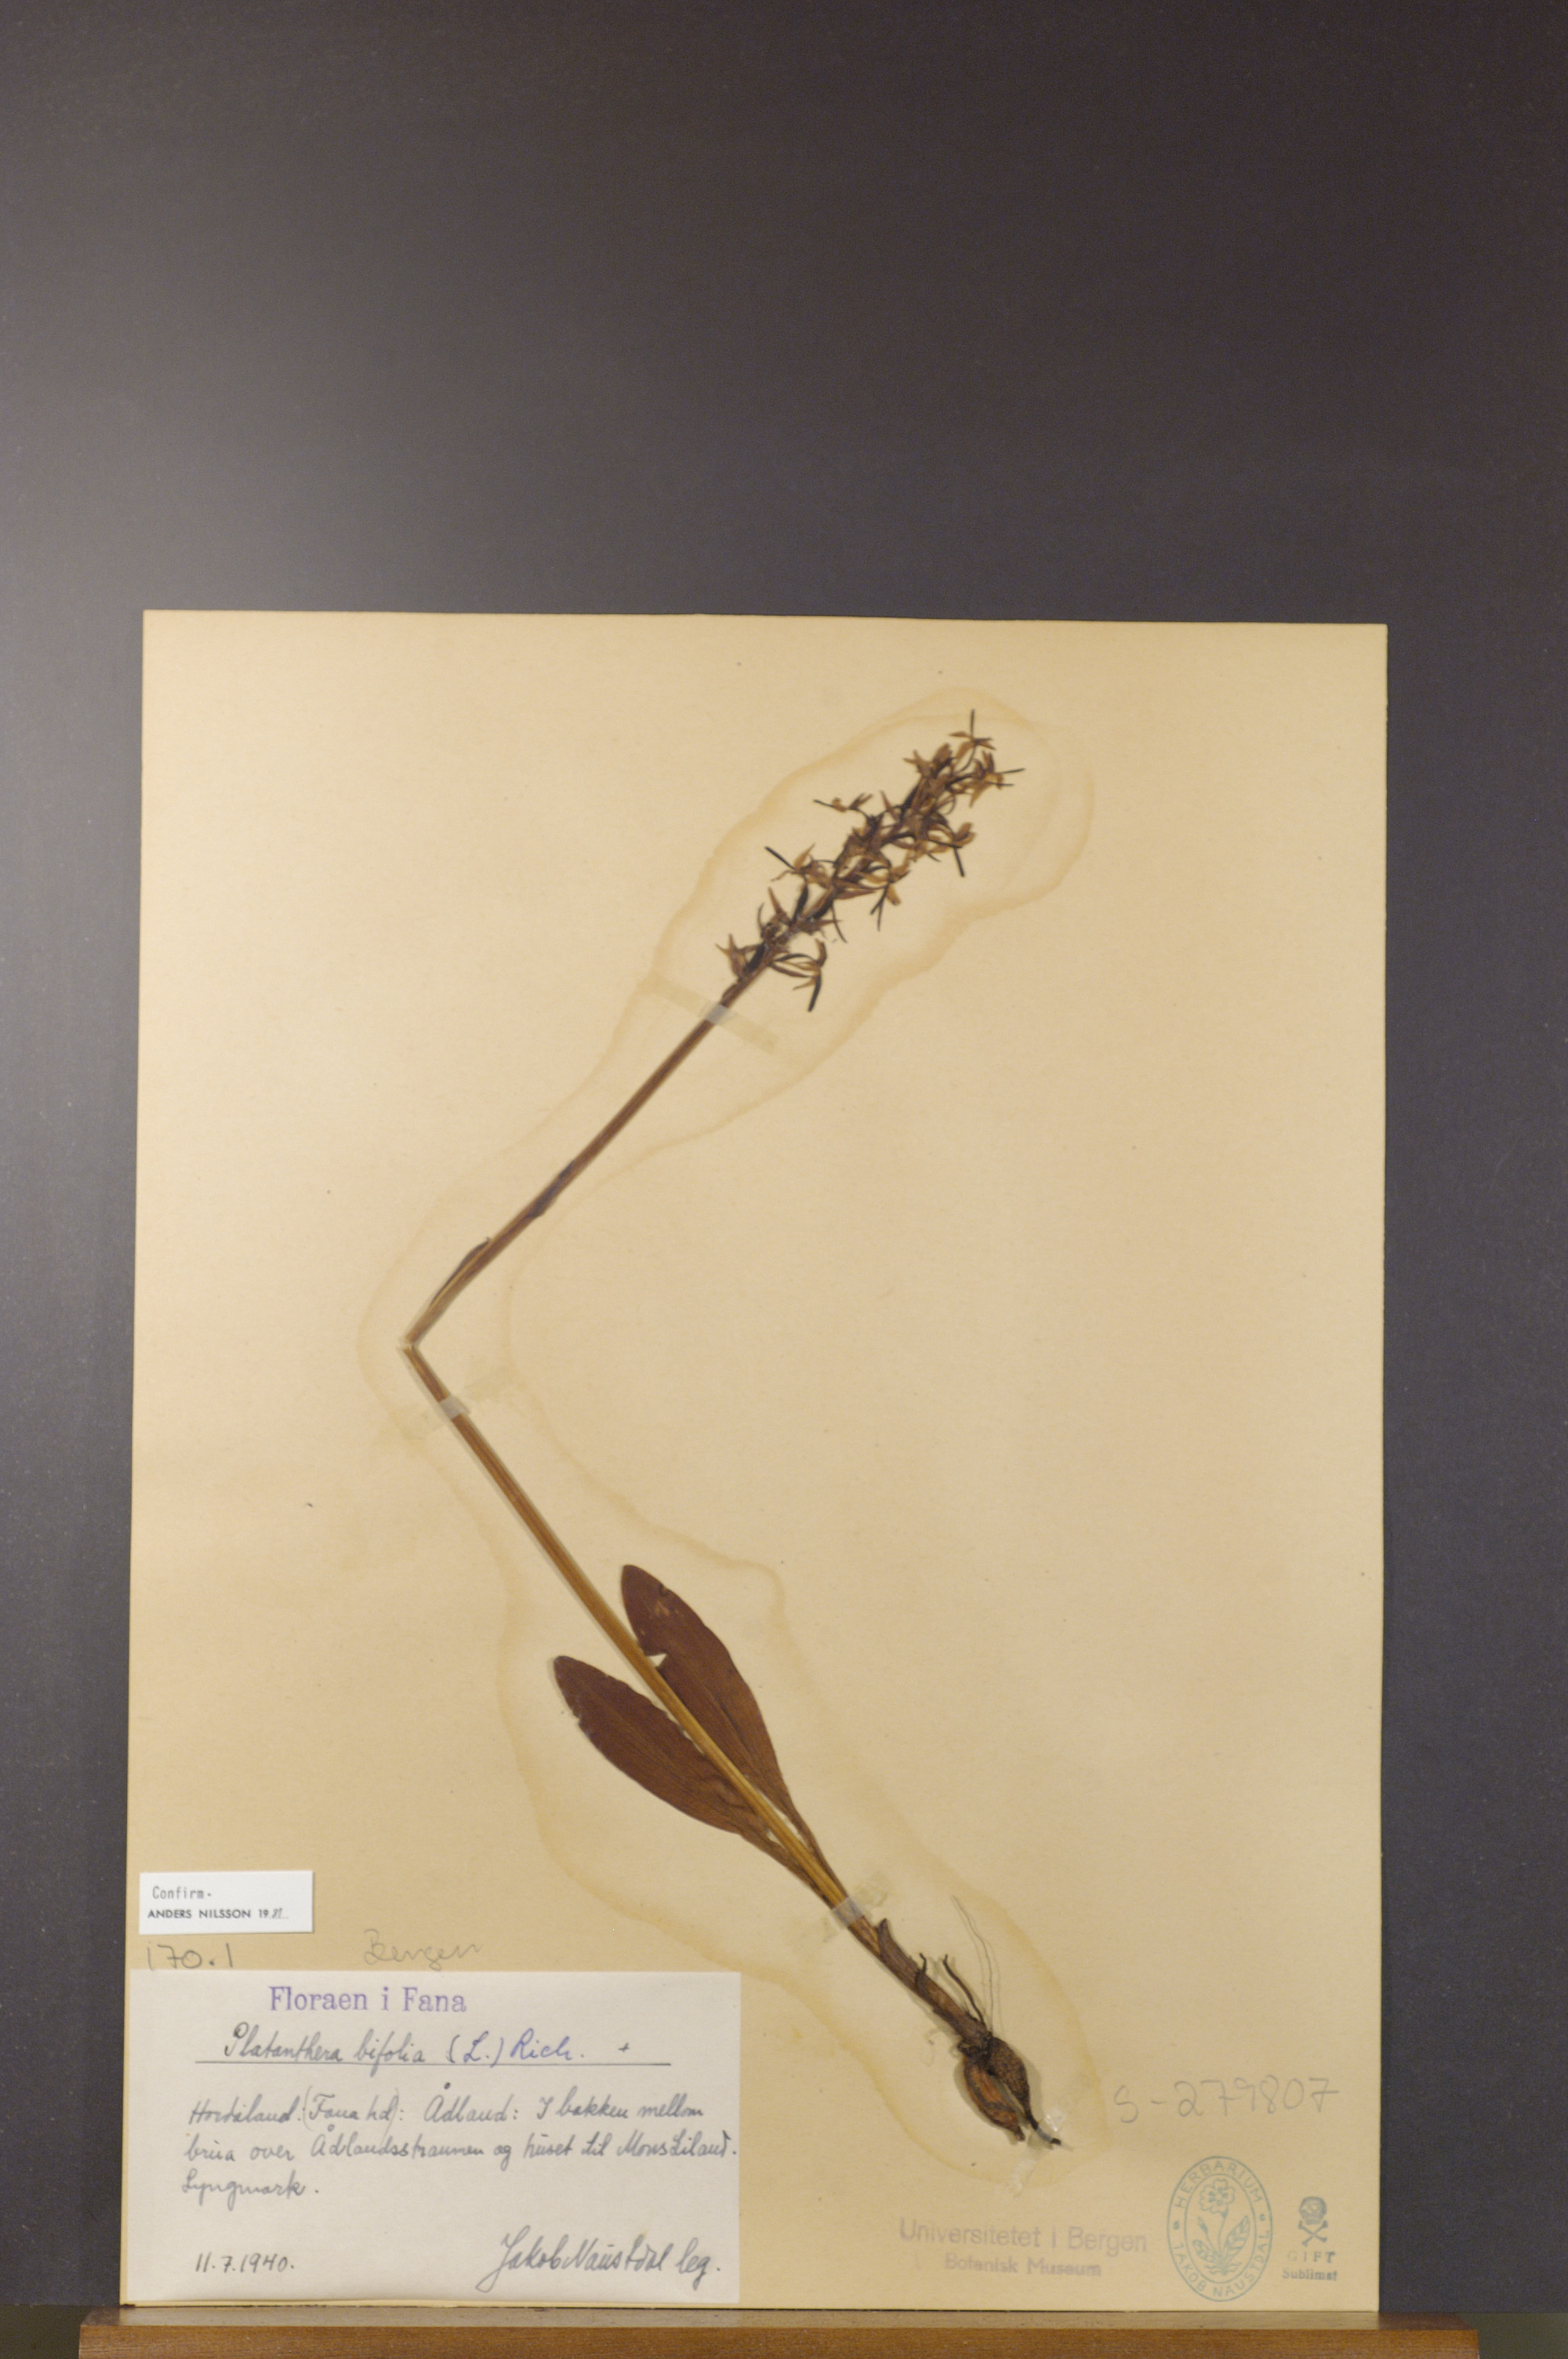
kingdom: Plantae
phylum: Tracheophyta
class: Liliopsida
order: Asparagales
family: Orchidaceae
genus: Platanthera
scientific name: Platanthera bifolia
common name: Lesser butterfly-orchid
